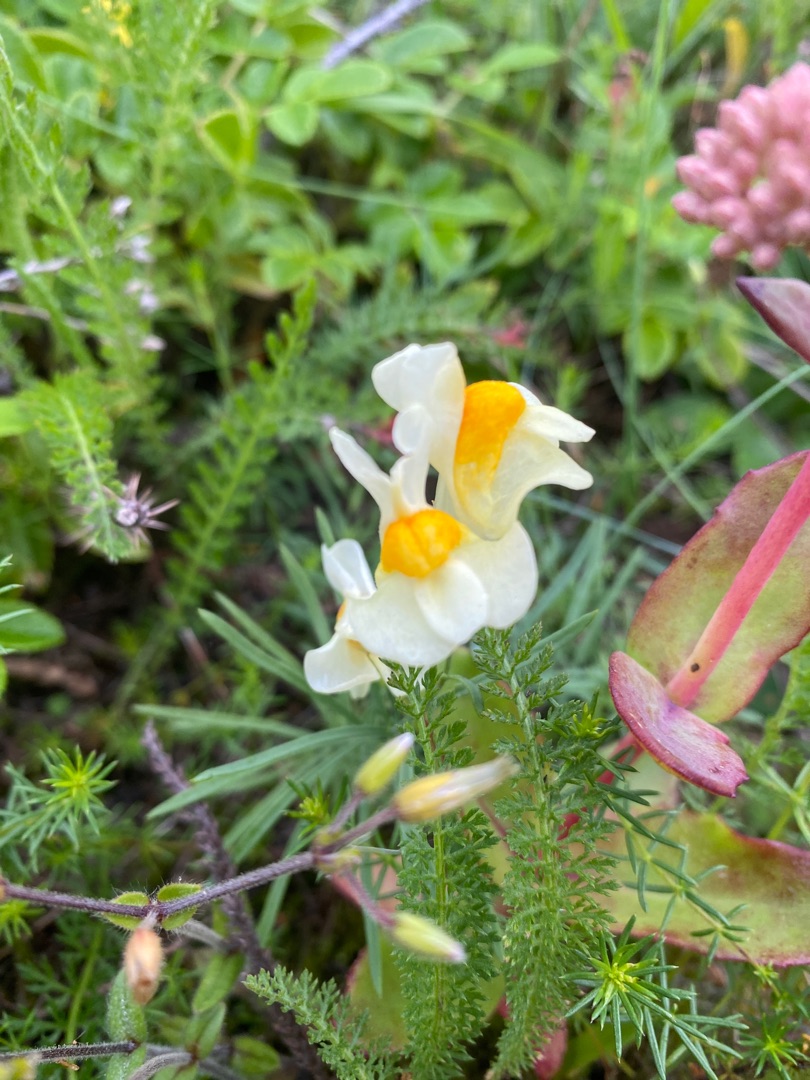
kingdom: Plantae
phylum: Tracheophyta
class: Magnoliopsida
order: Lamiales
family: Plantaginaceae
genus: Linaria
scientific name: Linaria vulgaris
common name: Almindelig torskemund
